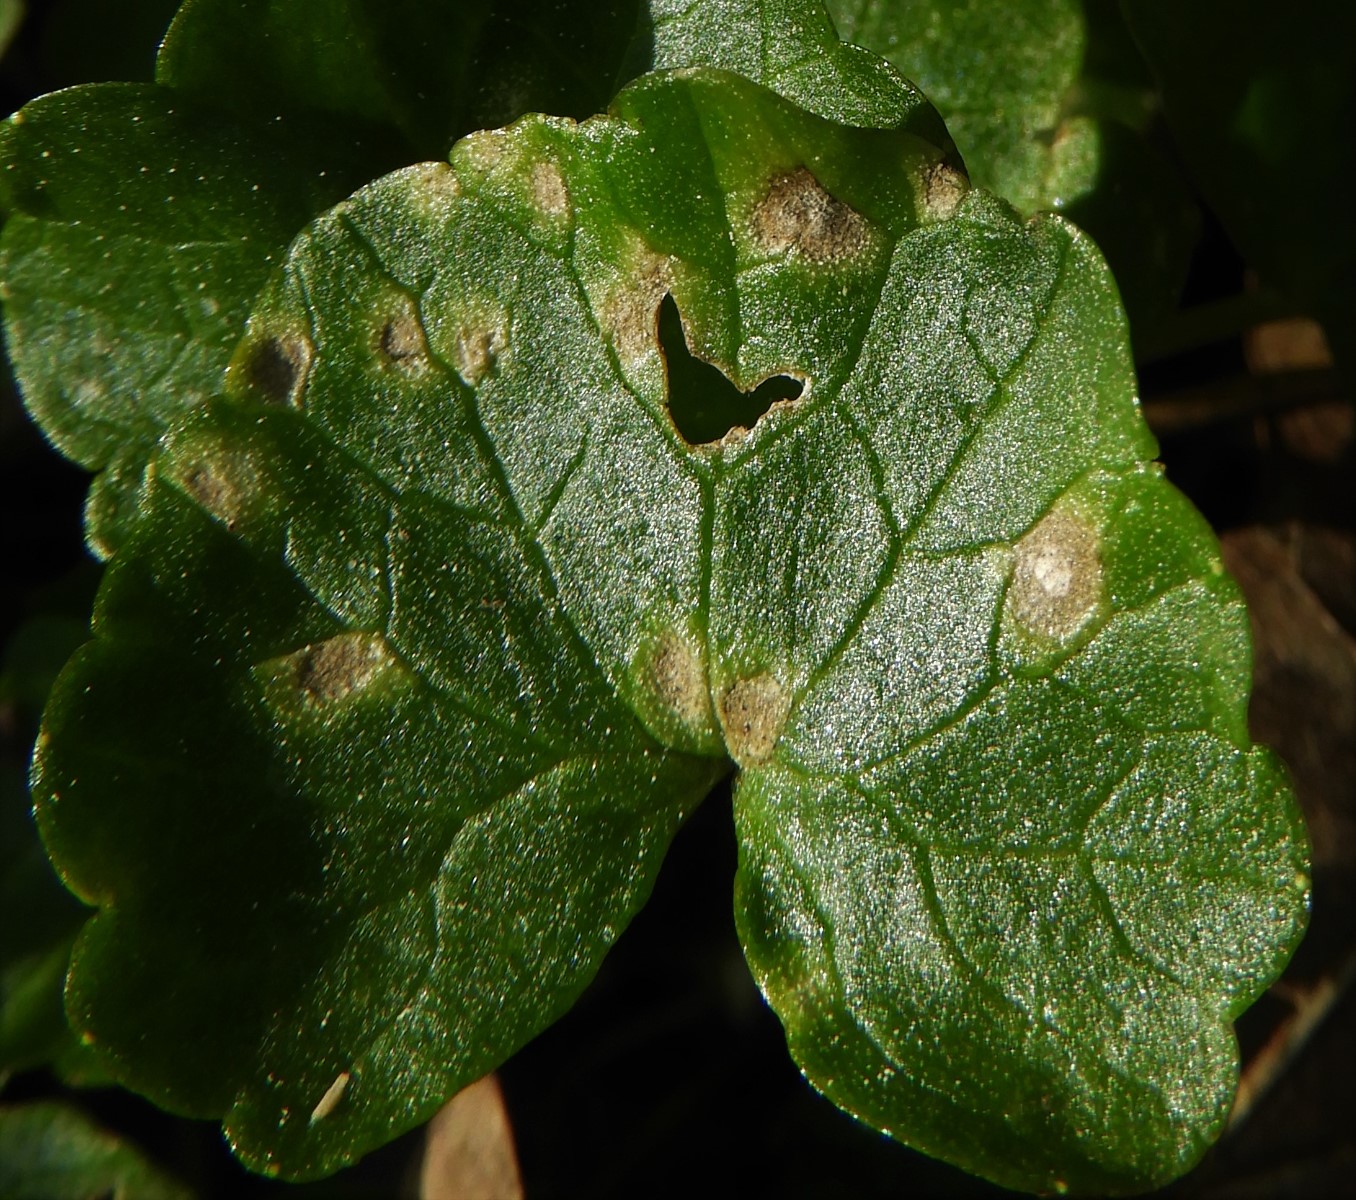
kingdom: Fungi
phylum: Basidiomycota
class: Exobasidiomycetes
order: Entylomatales
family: Entylomataceae
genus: Entyloma
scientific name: Entyloma ficariae
